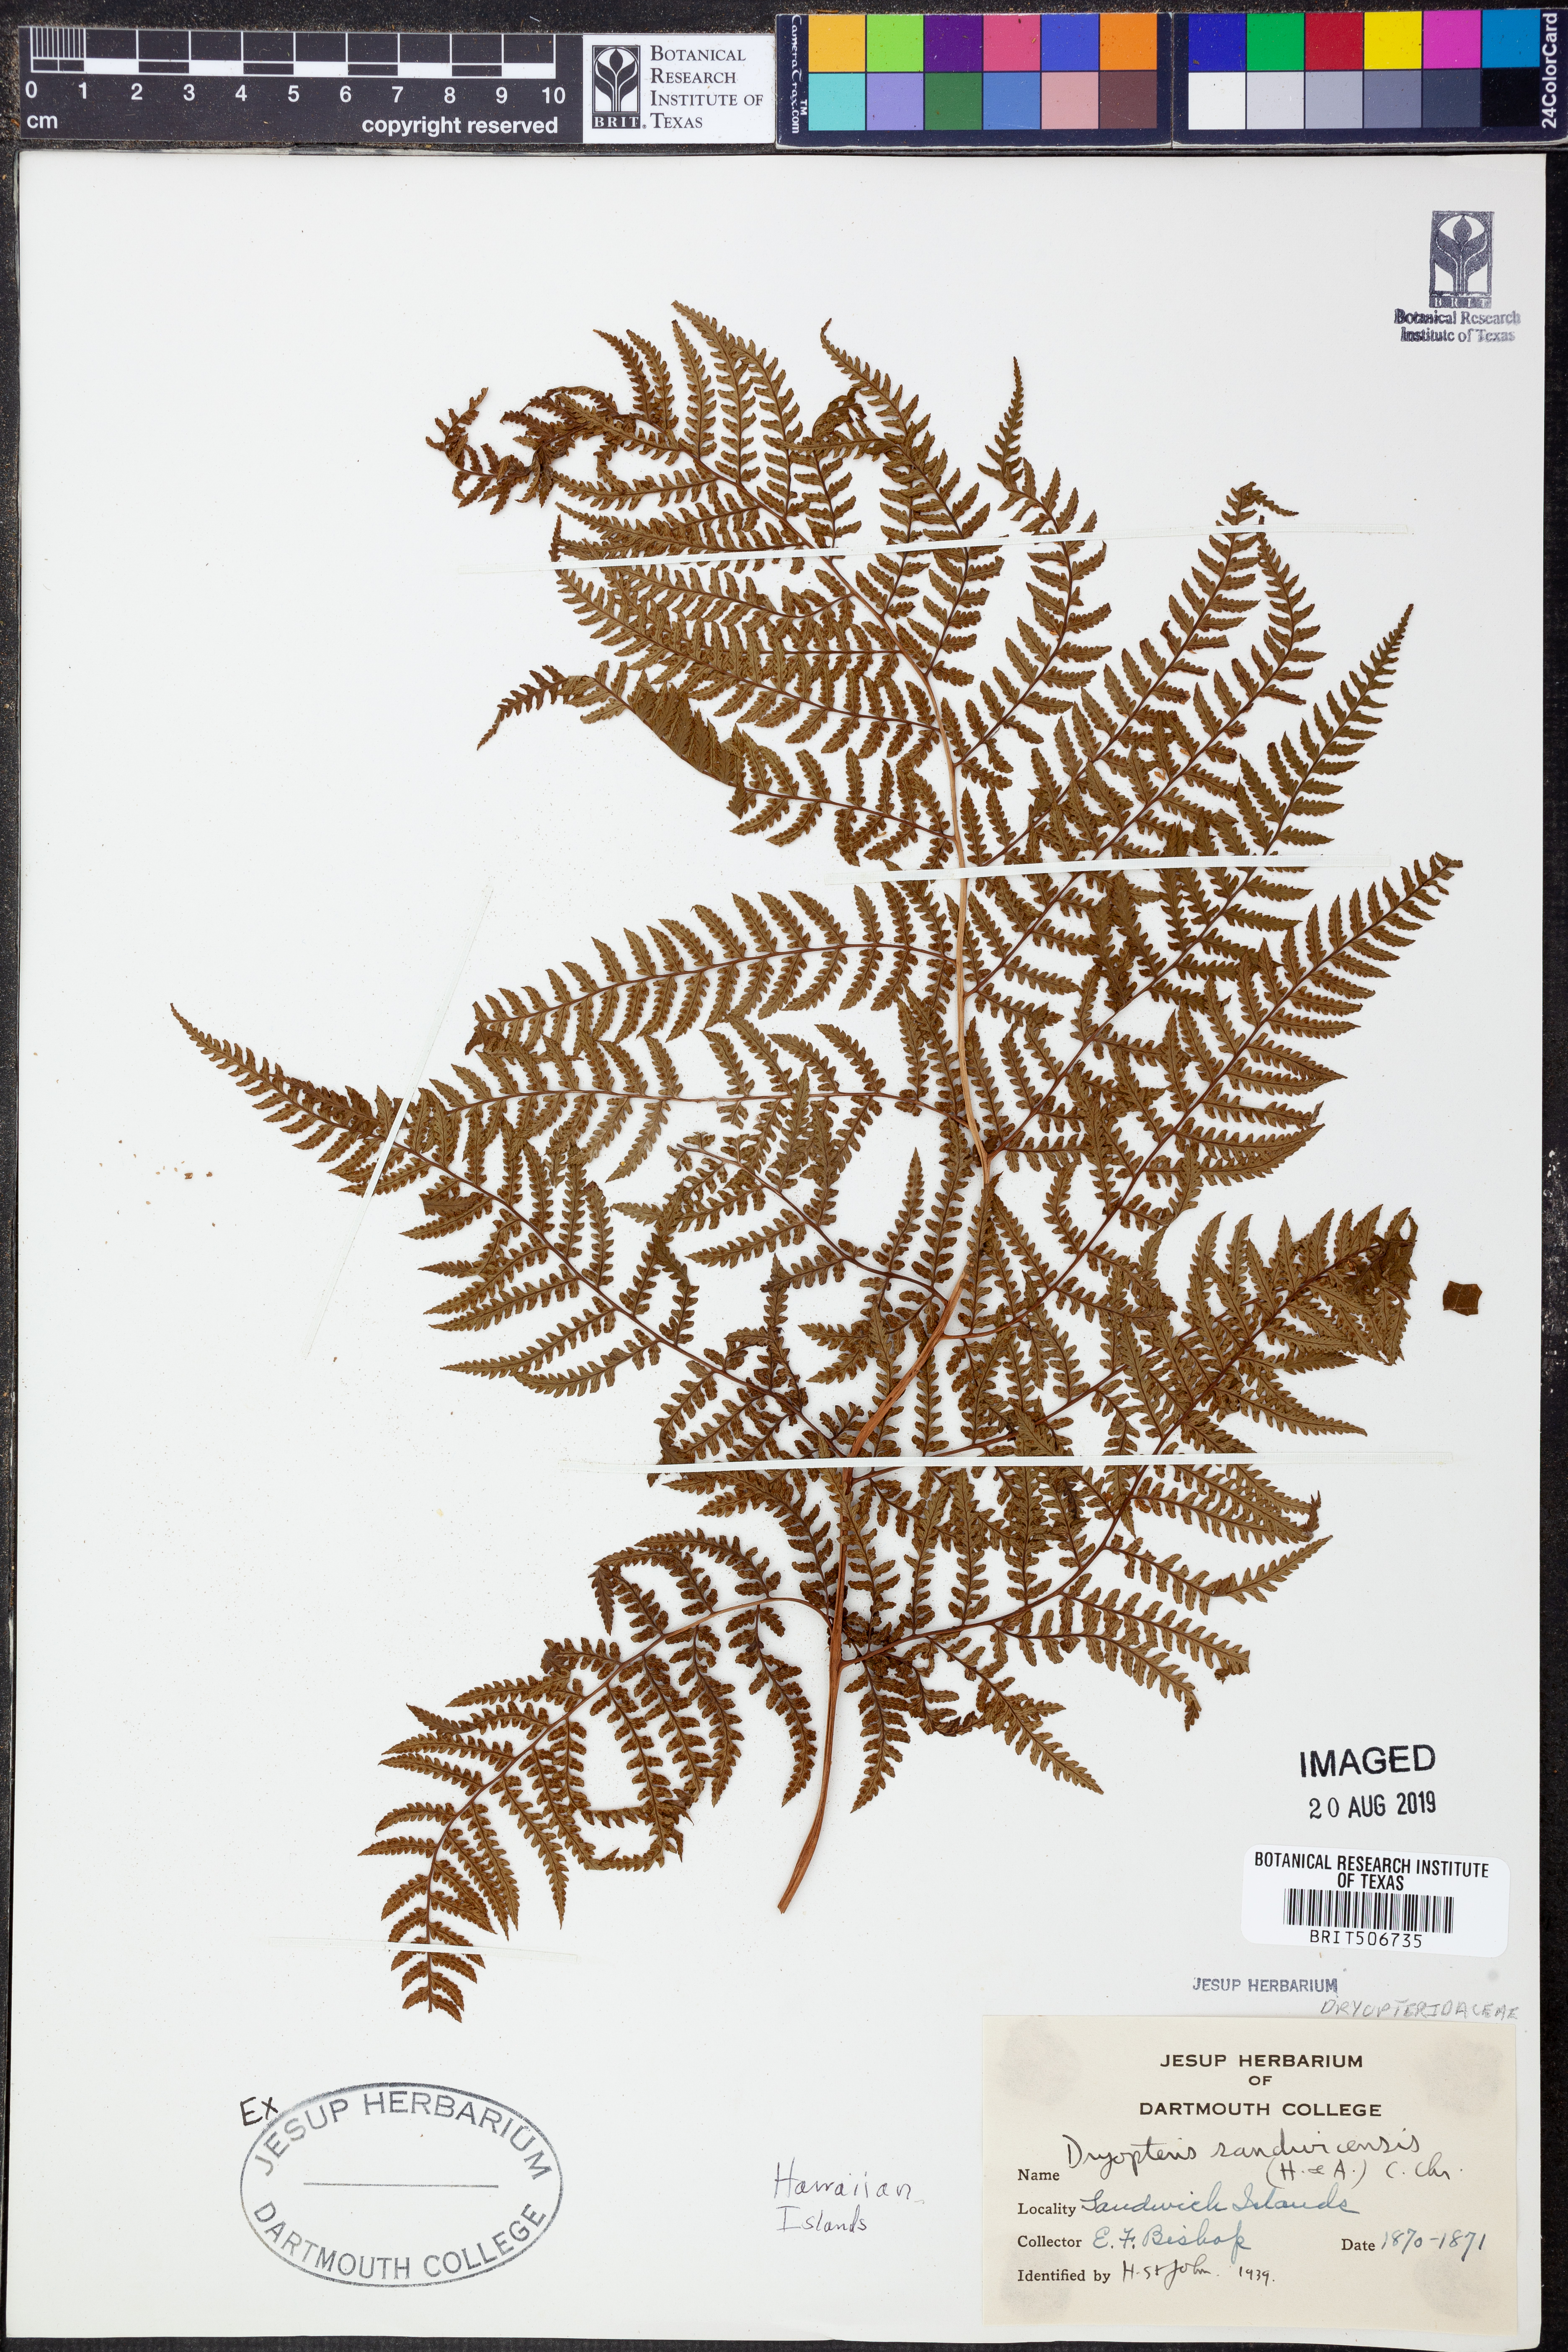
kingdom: Plantae
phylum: Tracheophyta
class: Polypodiopsida
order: Polypodiales
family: Dryopteridaceae
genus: Dryopteris
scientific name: Dryopteris sandwicensis
